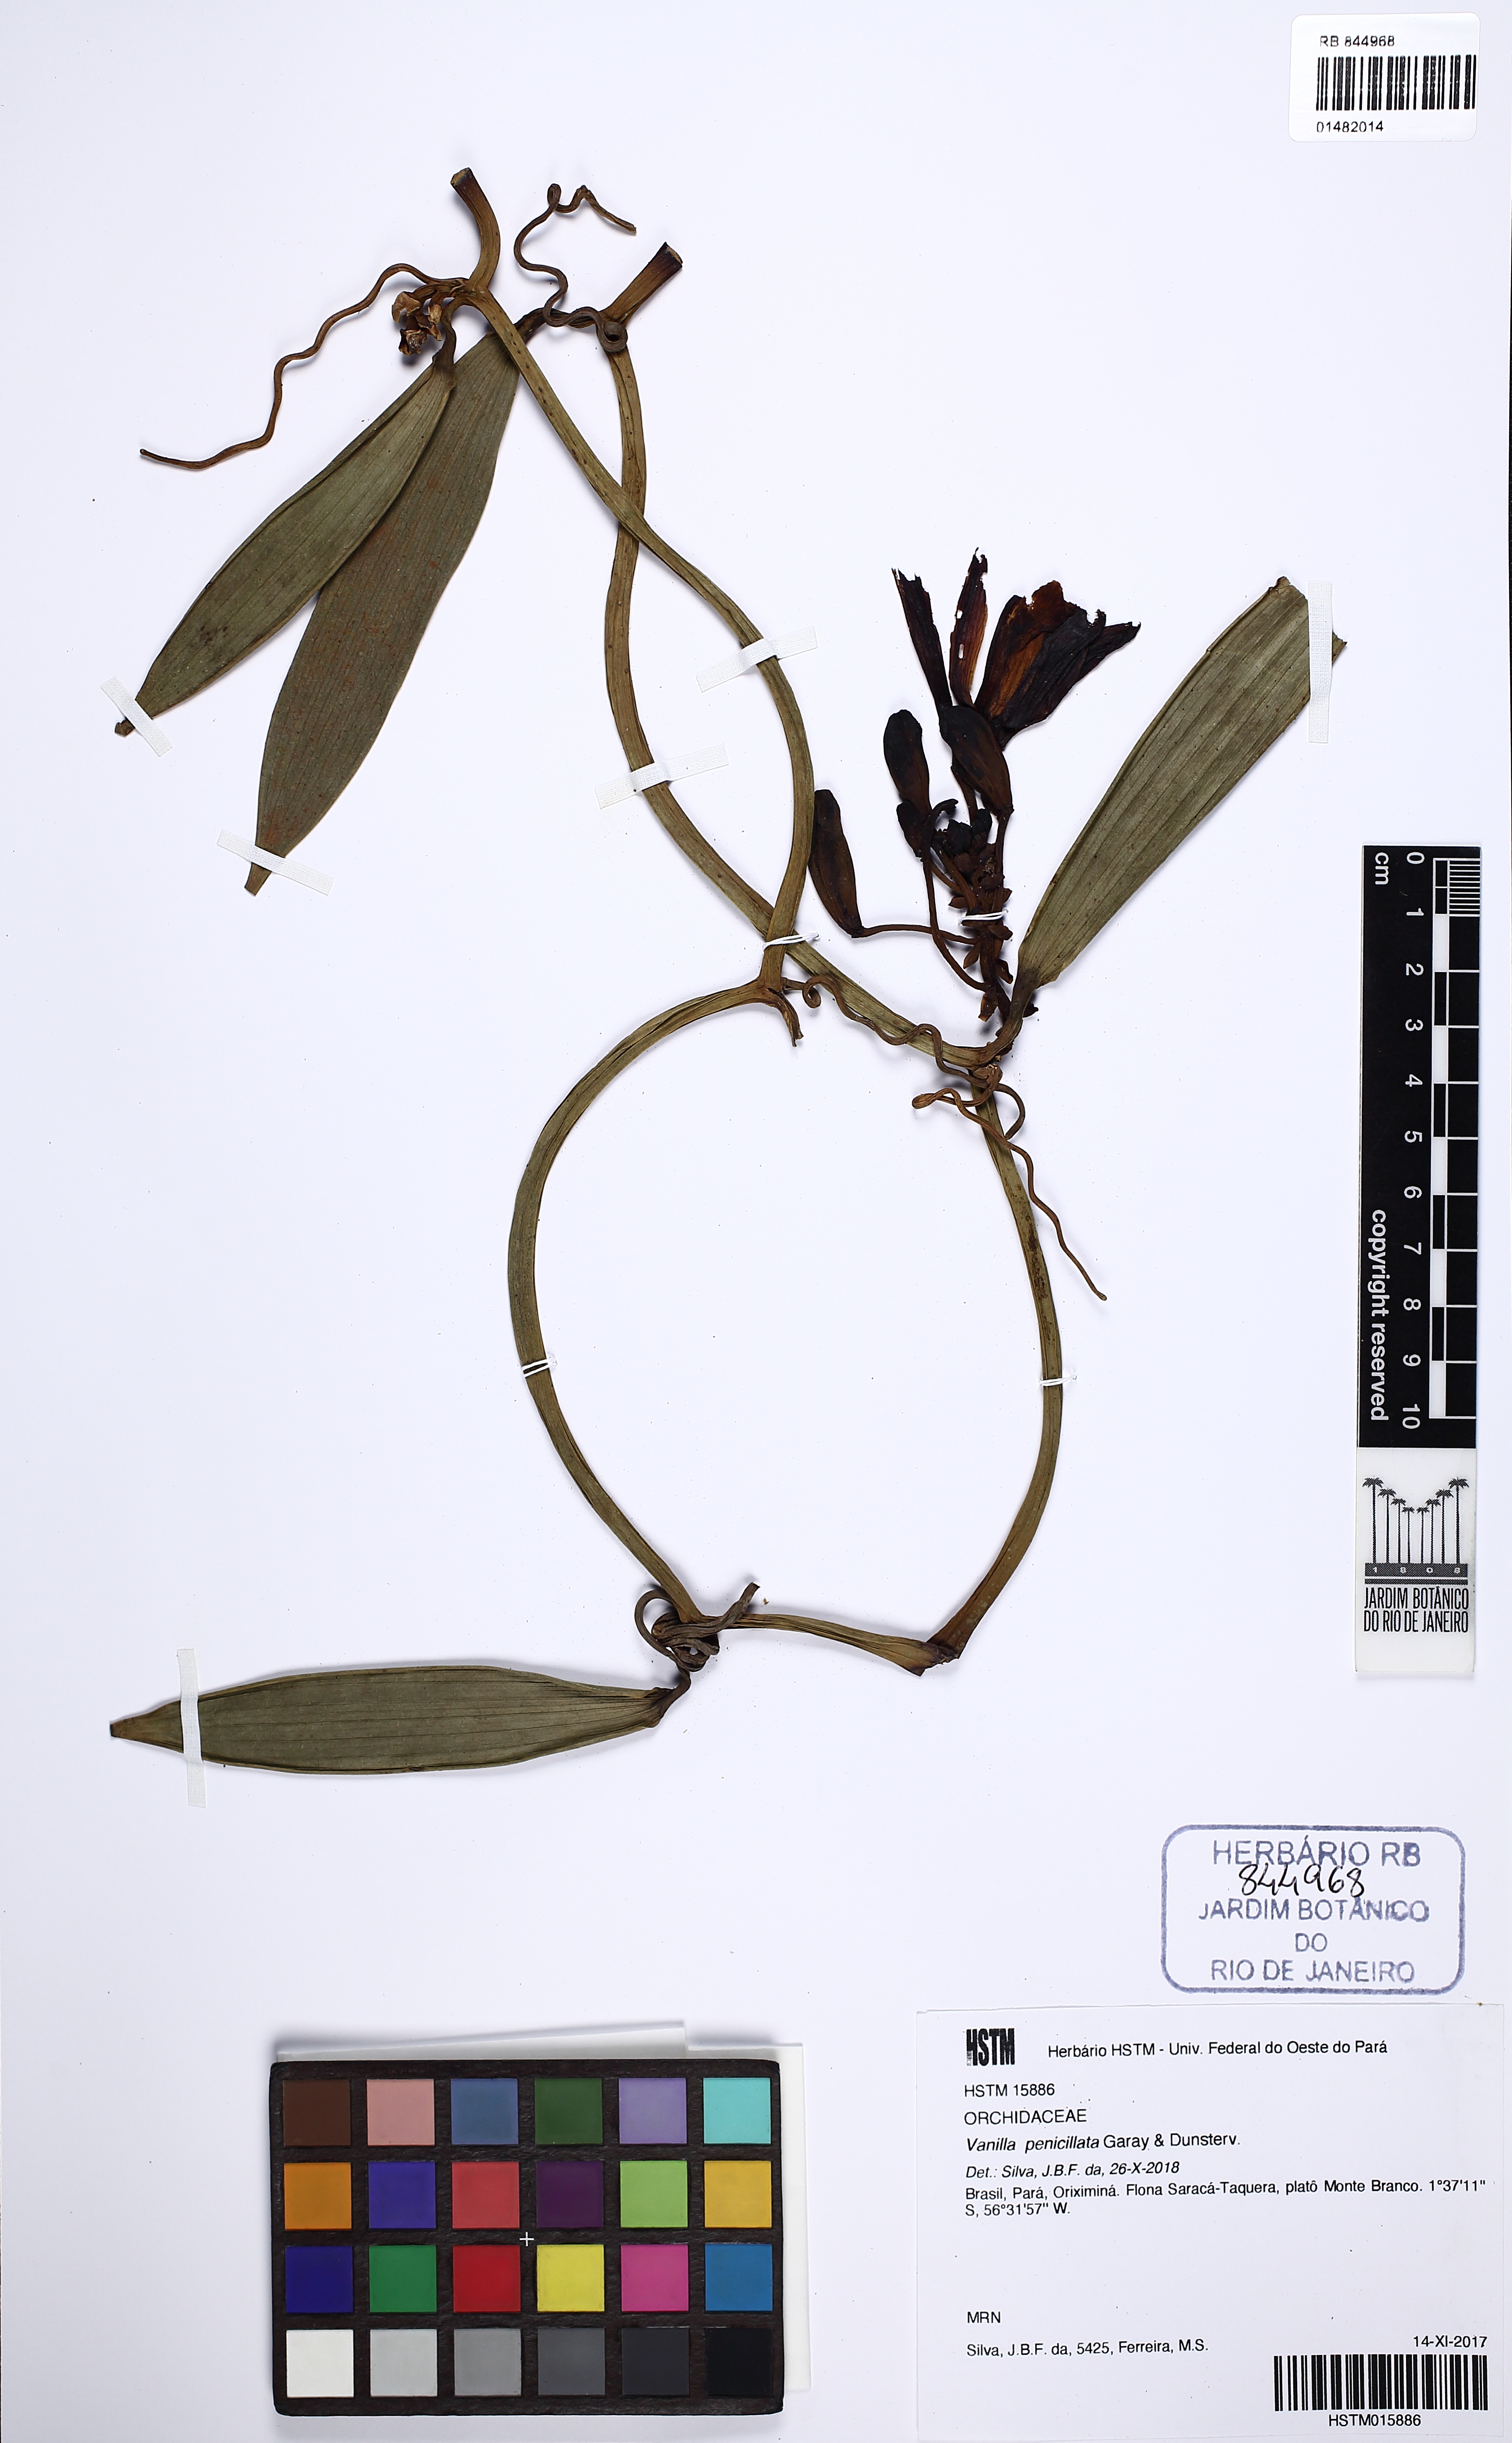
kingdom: Plantae
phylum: Tracheophyta
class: Liliopsida
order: Asparagales
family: Orchidaceae
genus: Vanilla
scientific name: Vanilla penicillata
